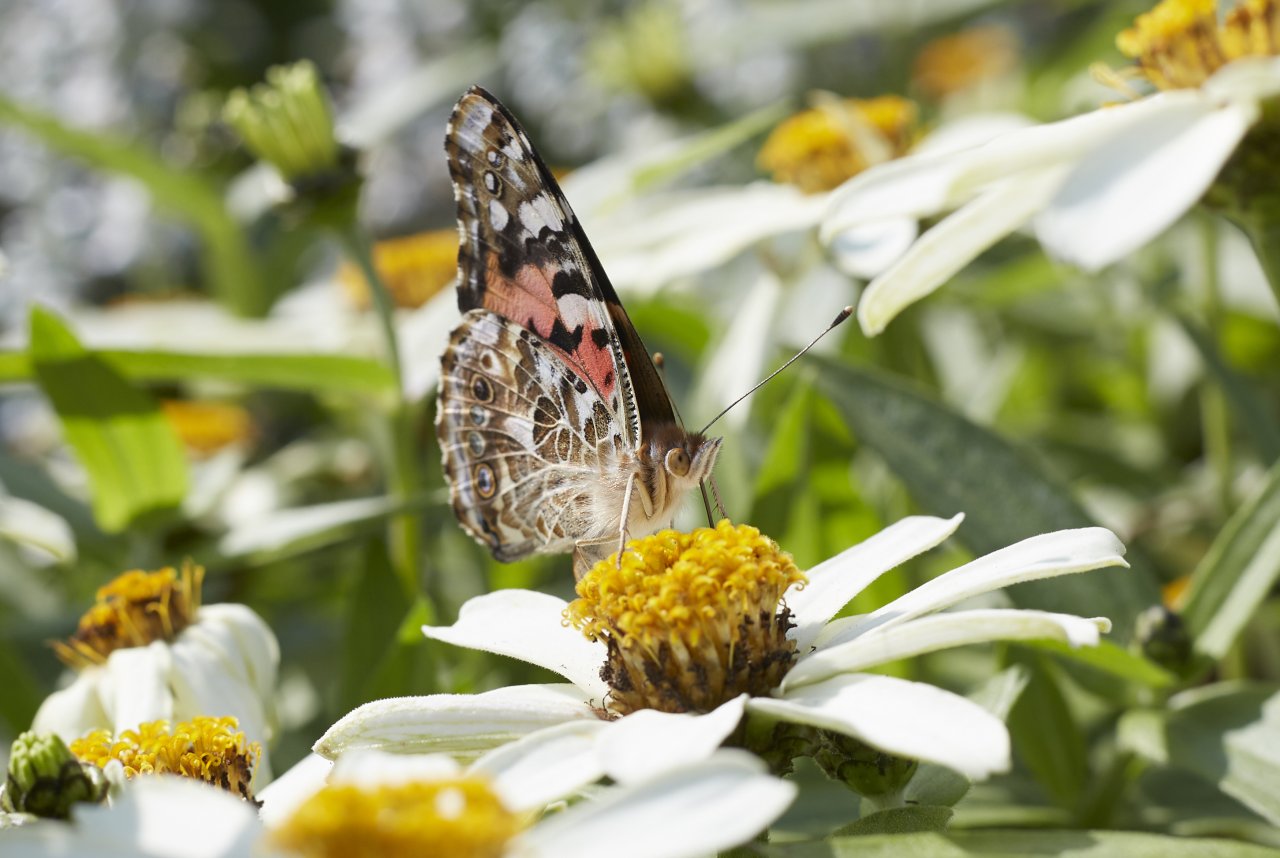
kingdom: Animalia
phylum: Arthropoda
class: Insecta
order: Lepidoptera
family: Nymphalidae
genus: Vanessa
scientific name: Vanessa cardui
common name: Painted Lady
